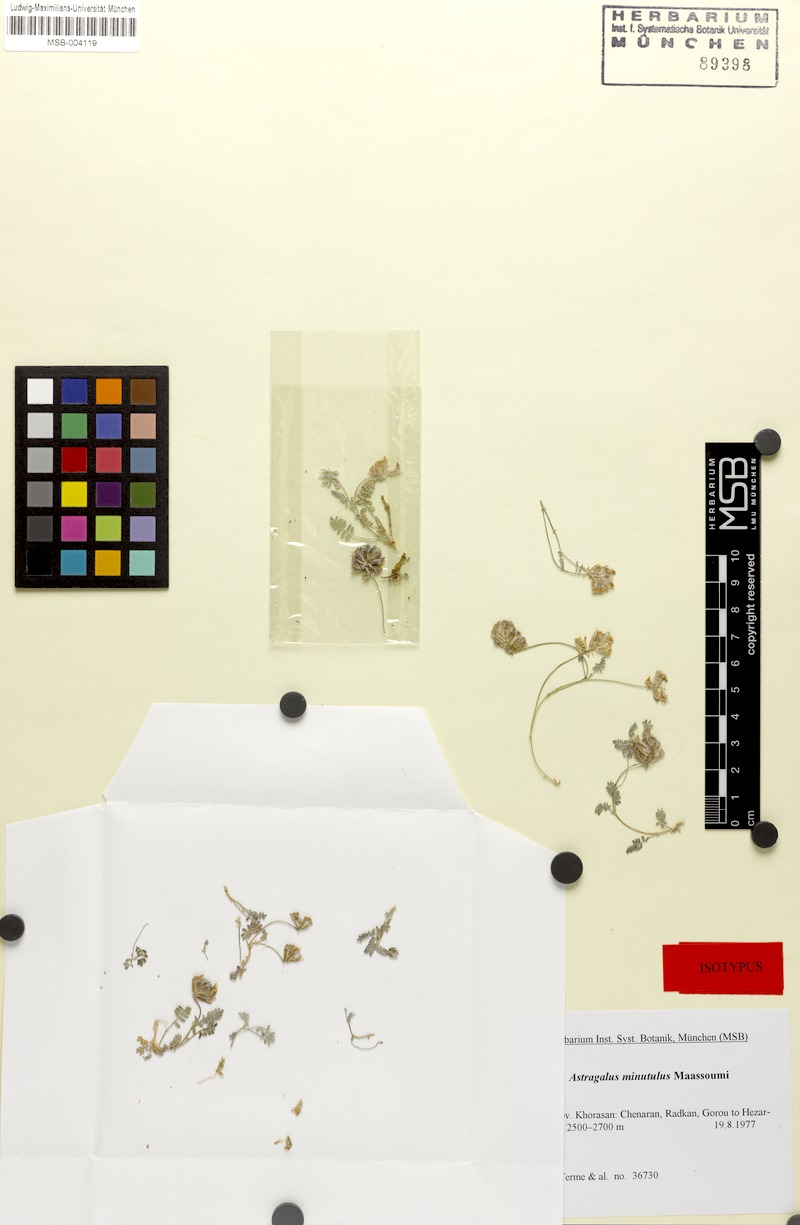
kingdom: Plantae
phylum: Tracheophyta
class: Magnoliopsida
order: Fabales
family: Fabaceae
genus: Astragalus
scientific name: Astragalus minutulus
